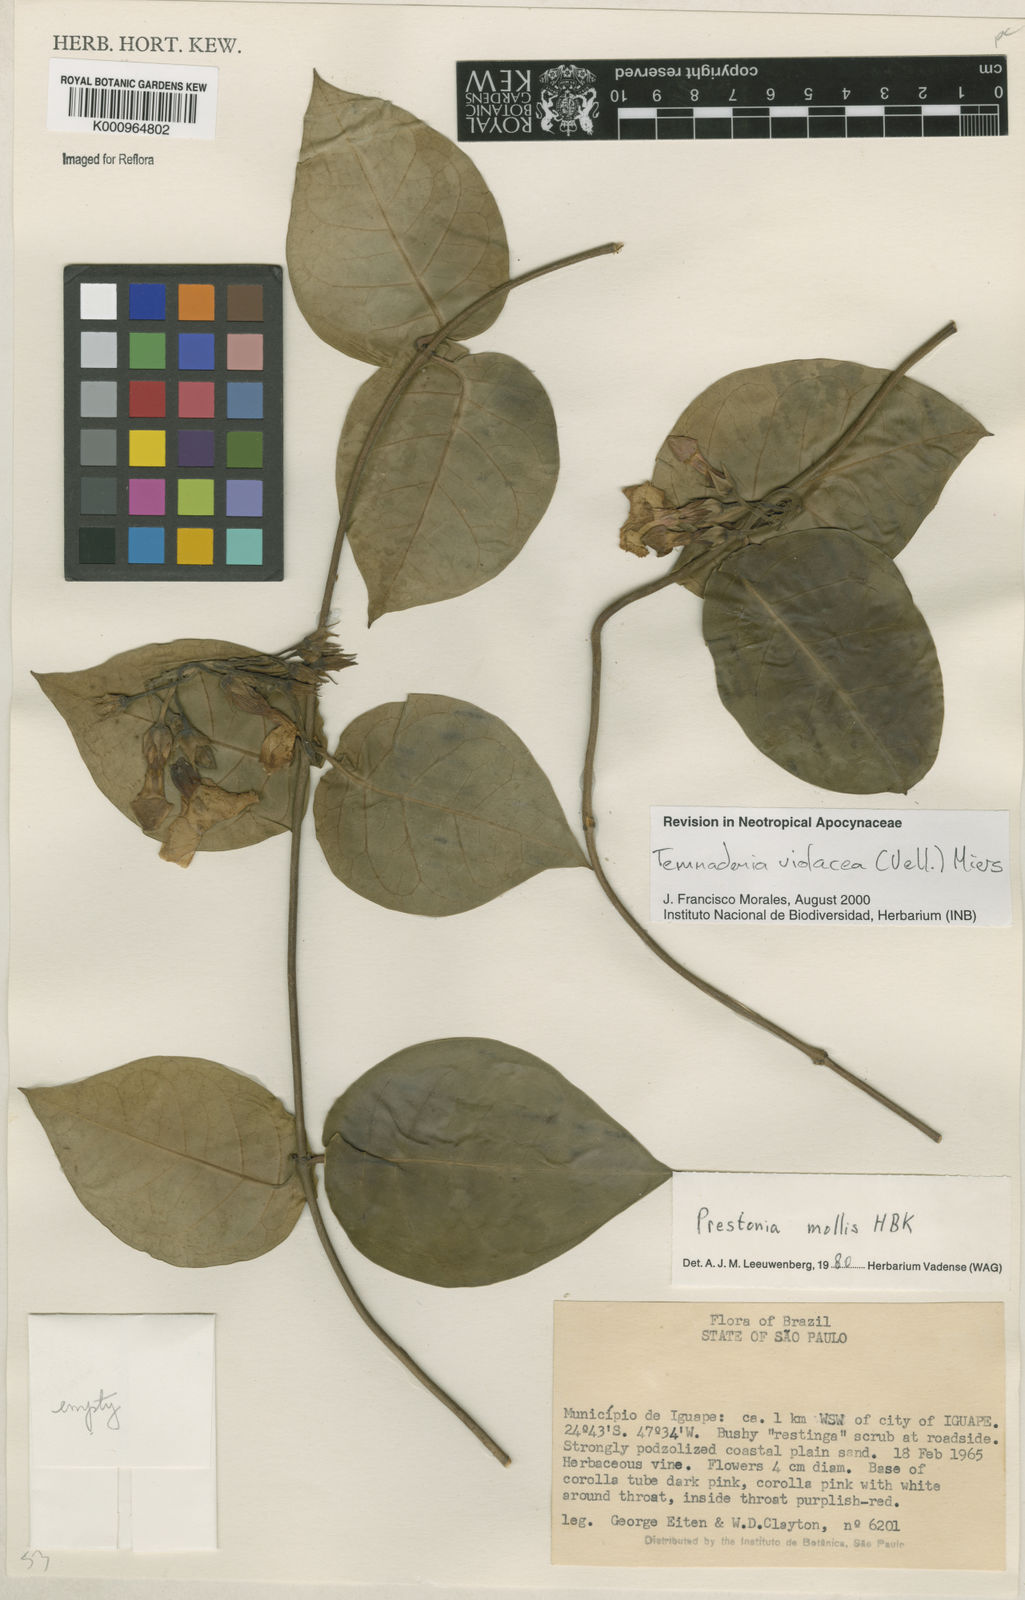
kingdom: Plantae
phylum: Tracheophyta
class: Magnoliopsida
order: Gentianales
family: Apocynaceae
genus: Temnadenia
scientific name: Temnadenia violacea
